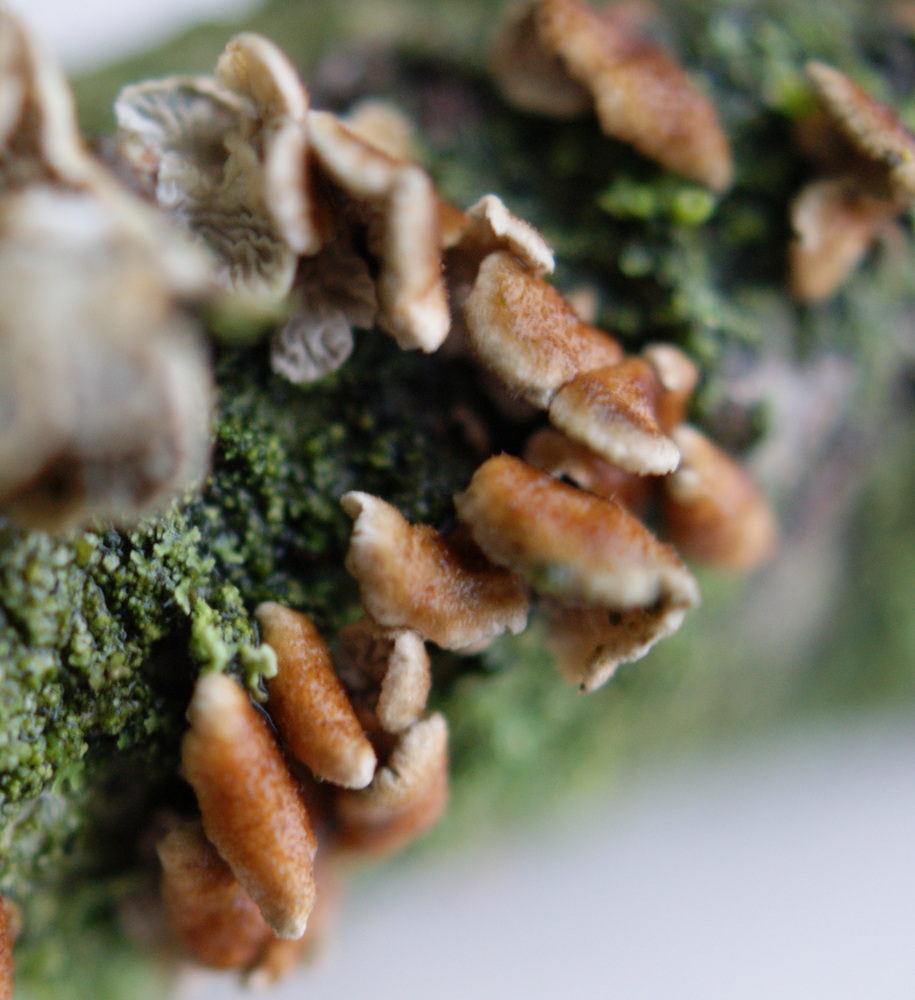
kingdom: Fungi
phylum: Basidiomycota
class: Agaricomycetes
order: Amylocorticiales
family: Amylocorticiaceae
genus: Plicaturopsis
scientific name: Plicaturopsis crispa
